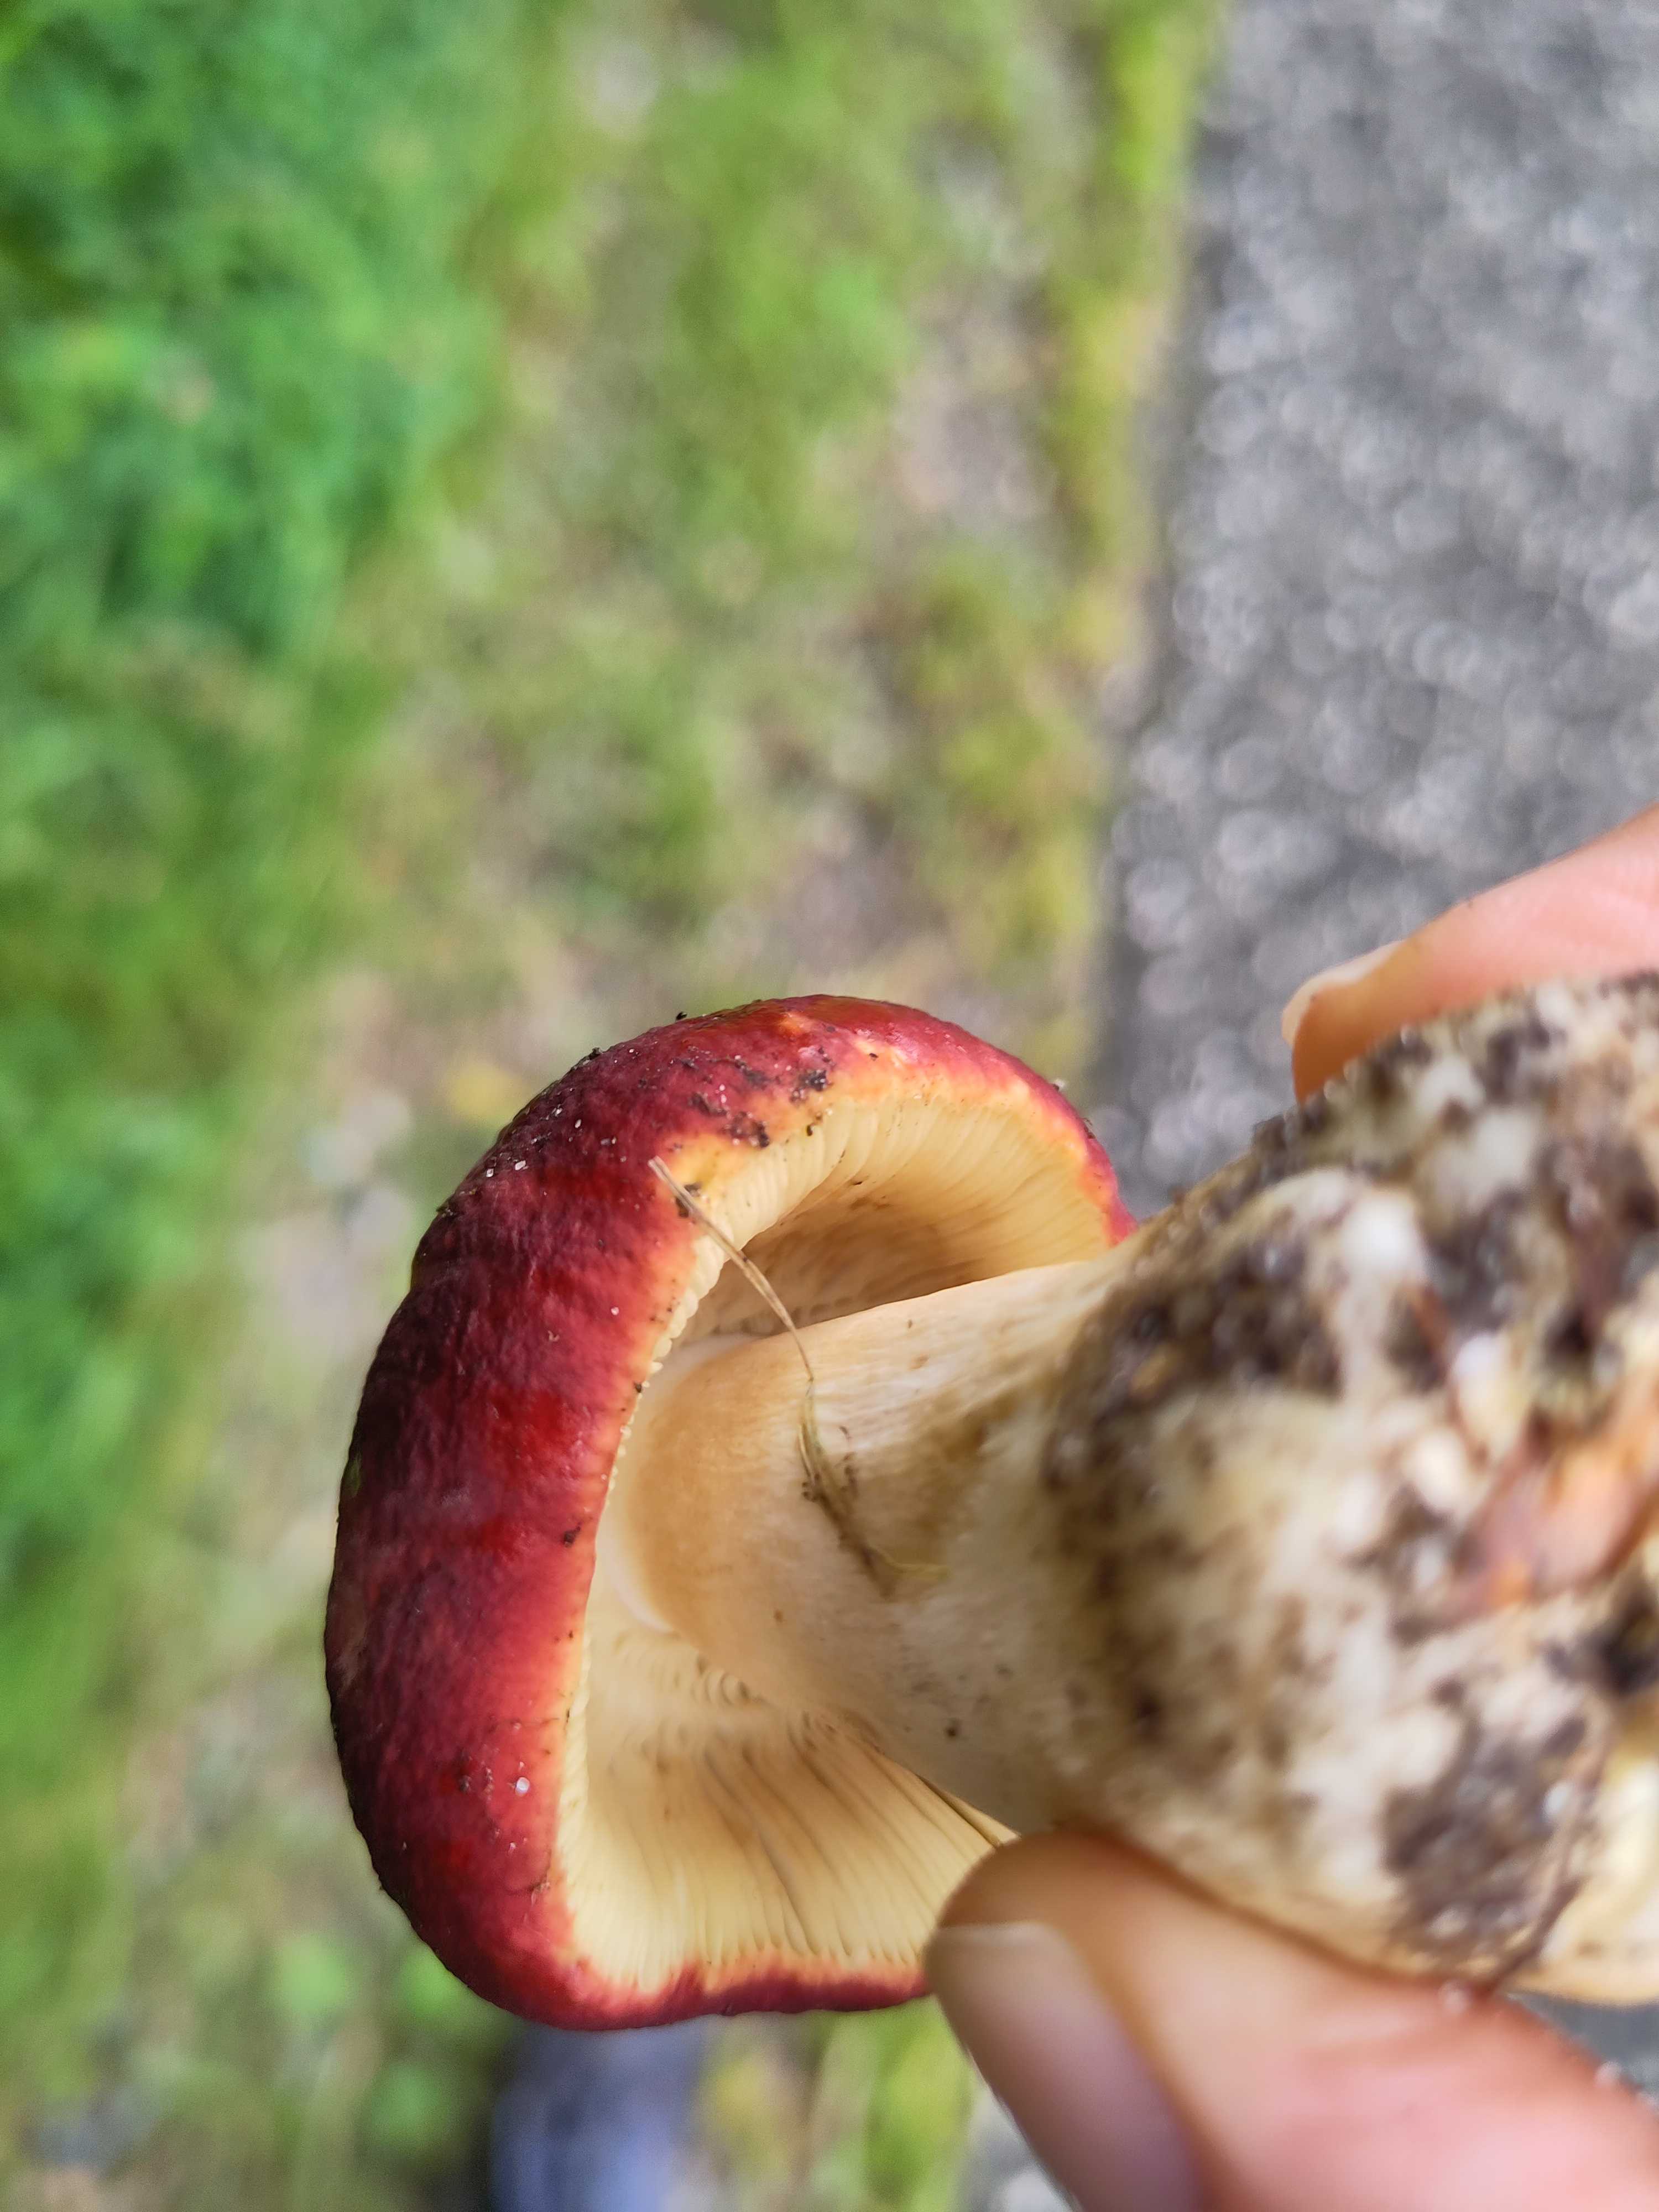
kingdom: Fungi
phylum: Basidiomycota
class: Agaricomycetes
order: Russulales
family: Russulaceae
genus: Russula
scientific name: Russula xerampelina
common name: hummer-skørhat
